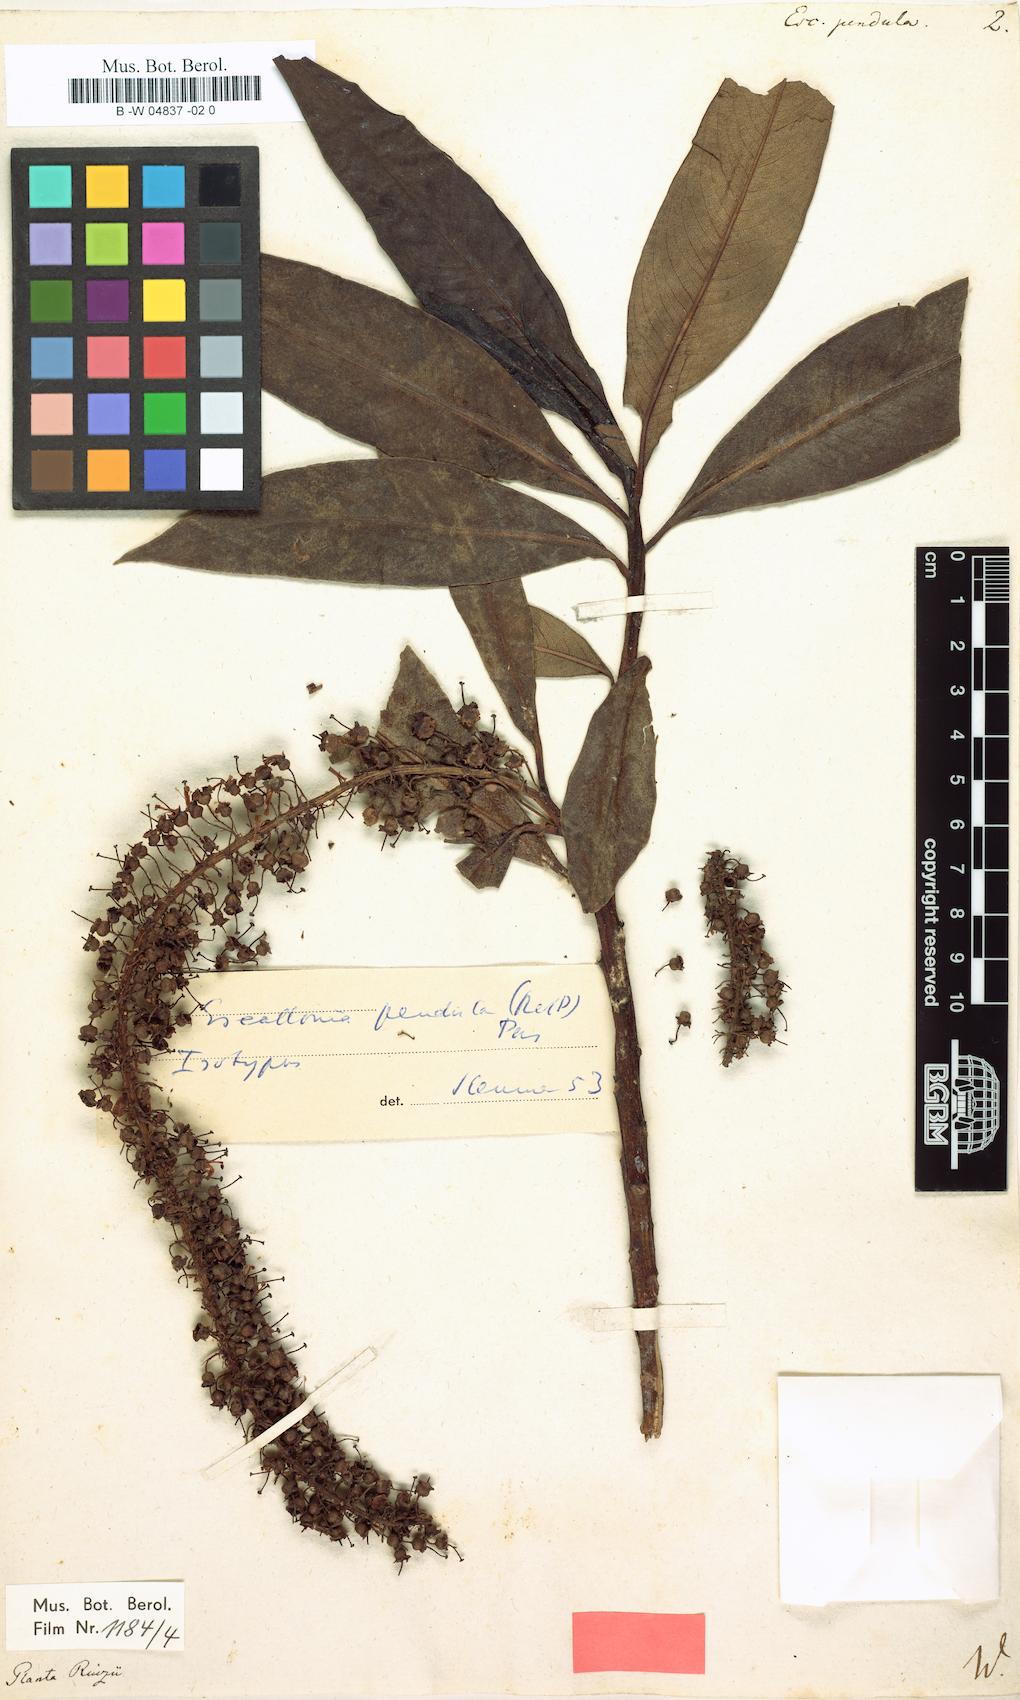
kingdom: Plantae
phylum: Tracheophyta
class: Magnoliopsida
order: Escalloniales
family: Escalloniaceae
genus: Escallonia
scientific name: Escallonia pendula
